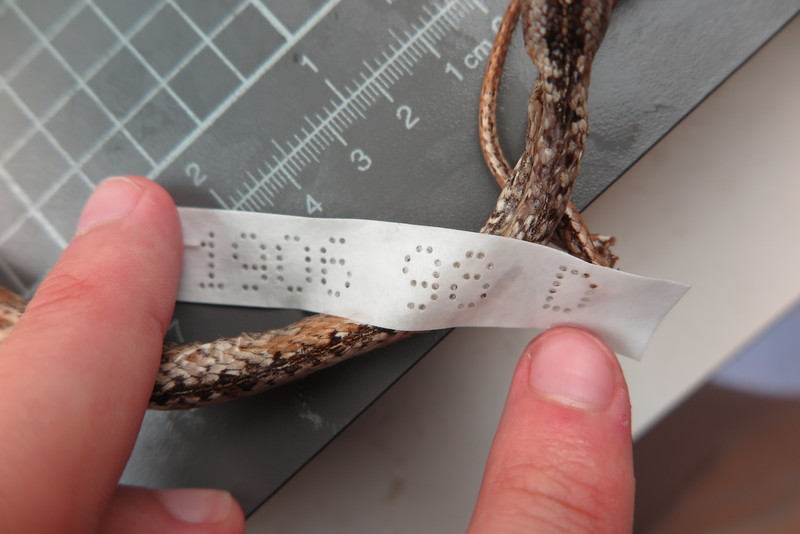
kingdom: Animalia
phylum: Chordata
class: Squamata
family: Psammophiidae
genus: Mimophis
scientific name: Mimophis
